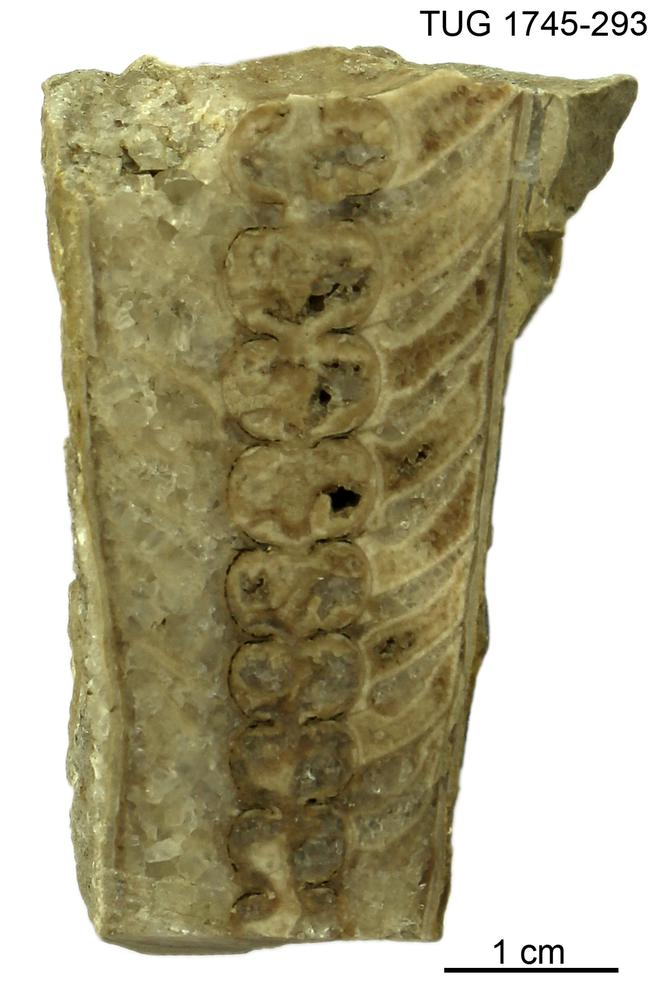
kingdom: Animalia
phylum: Mollusca
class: Cephalopoda
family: Armenoceratidae
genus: Nybyoceras
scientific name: Nybyoceras intermedium
